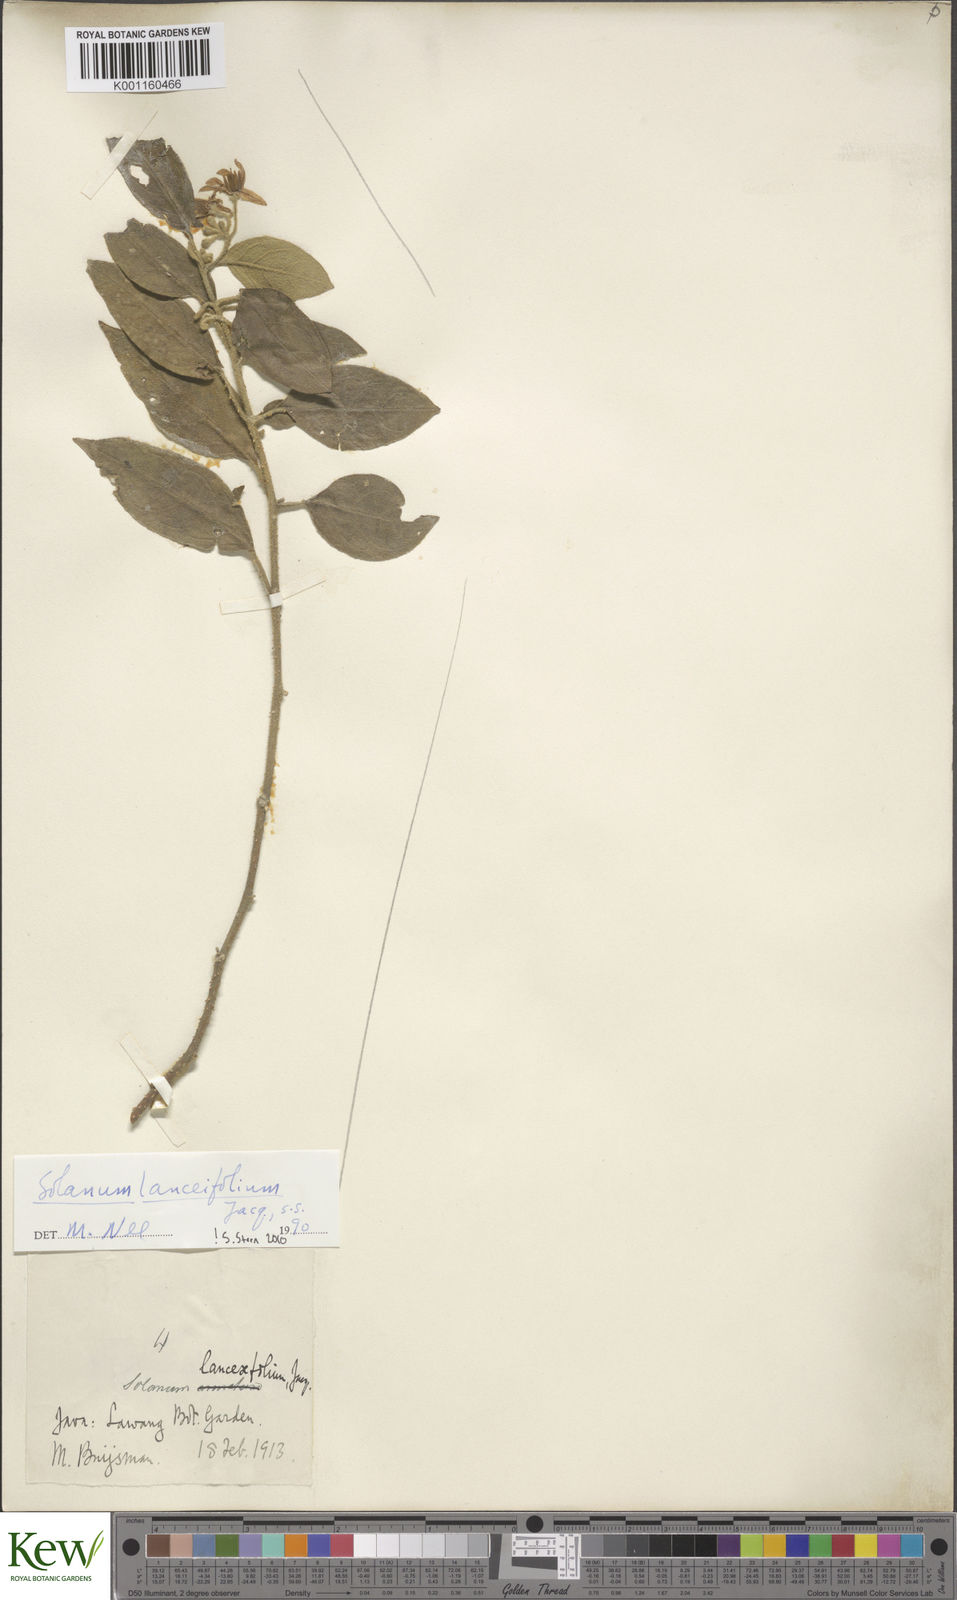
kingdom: Plantae
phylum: Tracheophyta
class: Magnoliopsida
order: Solanales
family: Solanaceae
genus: Solanum
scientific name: Solanum lanceifolium
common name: Lanceleaf nightshade
